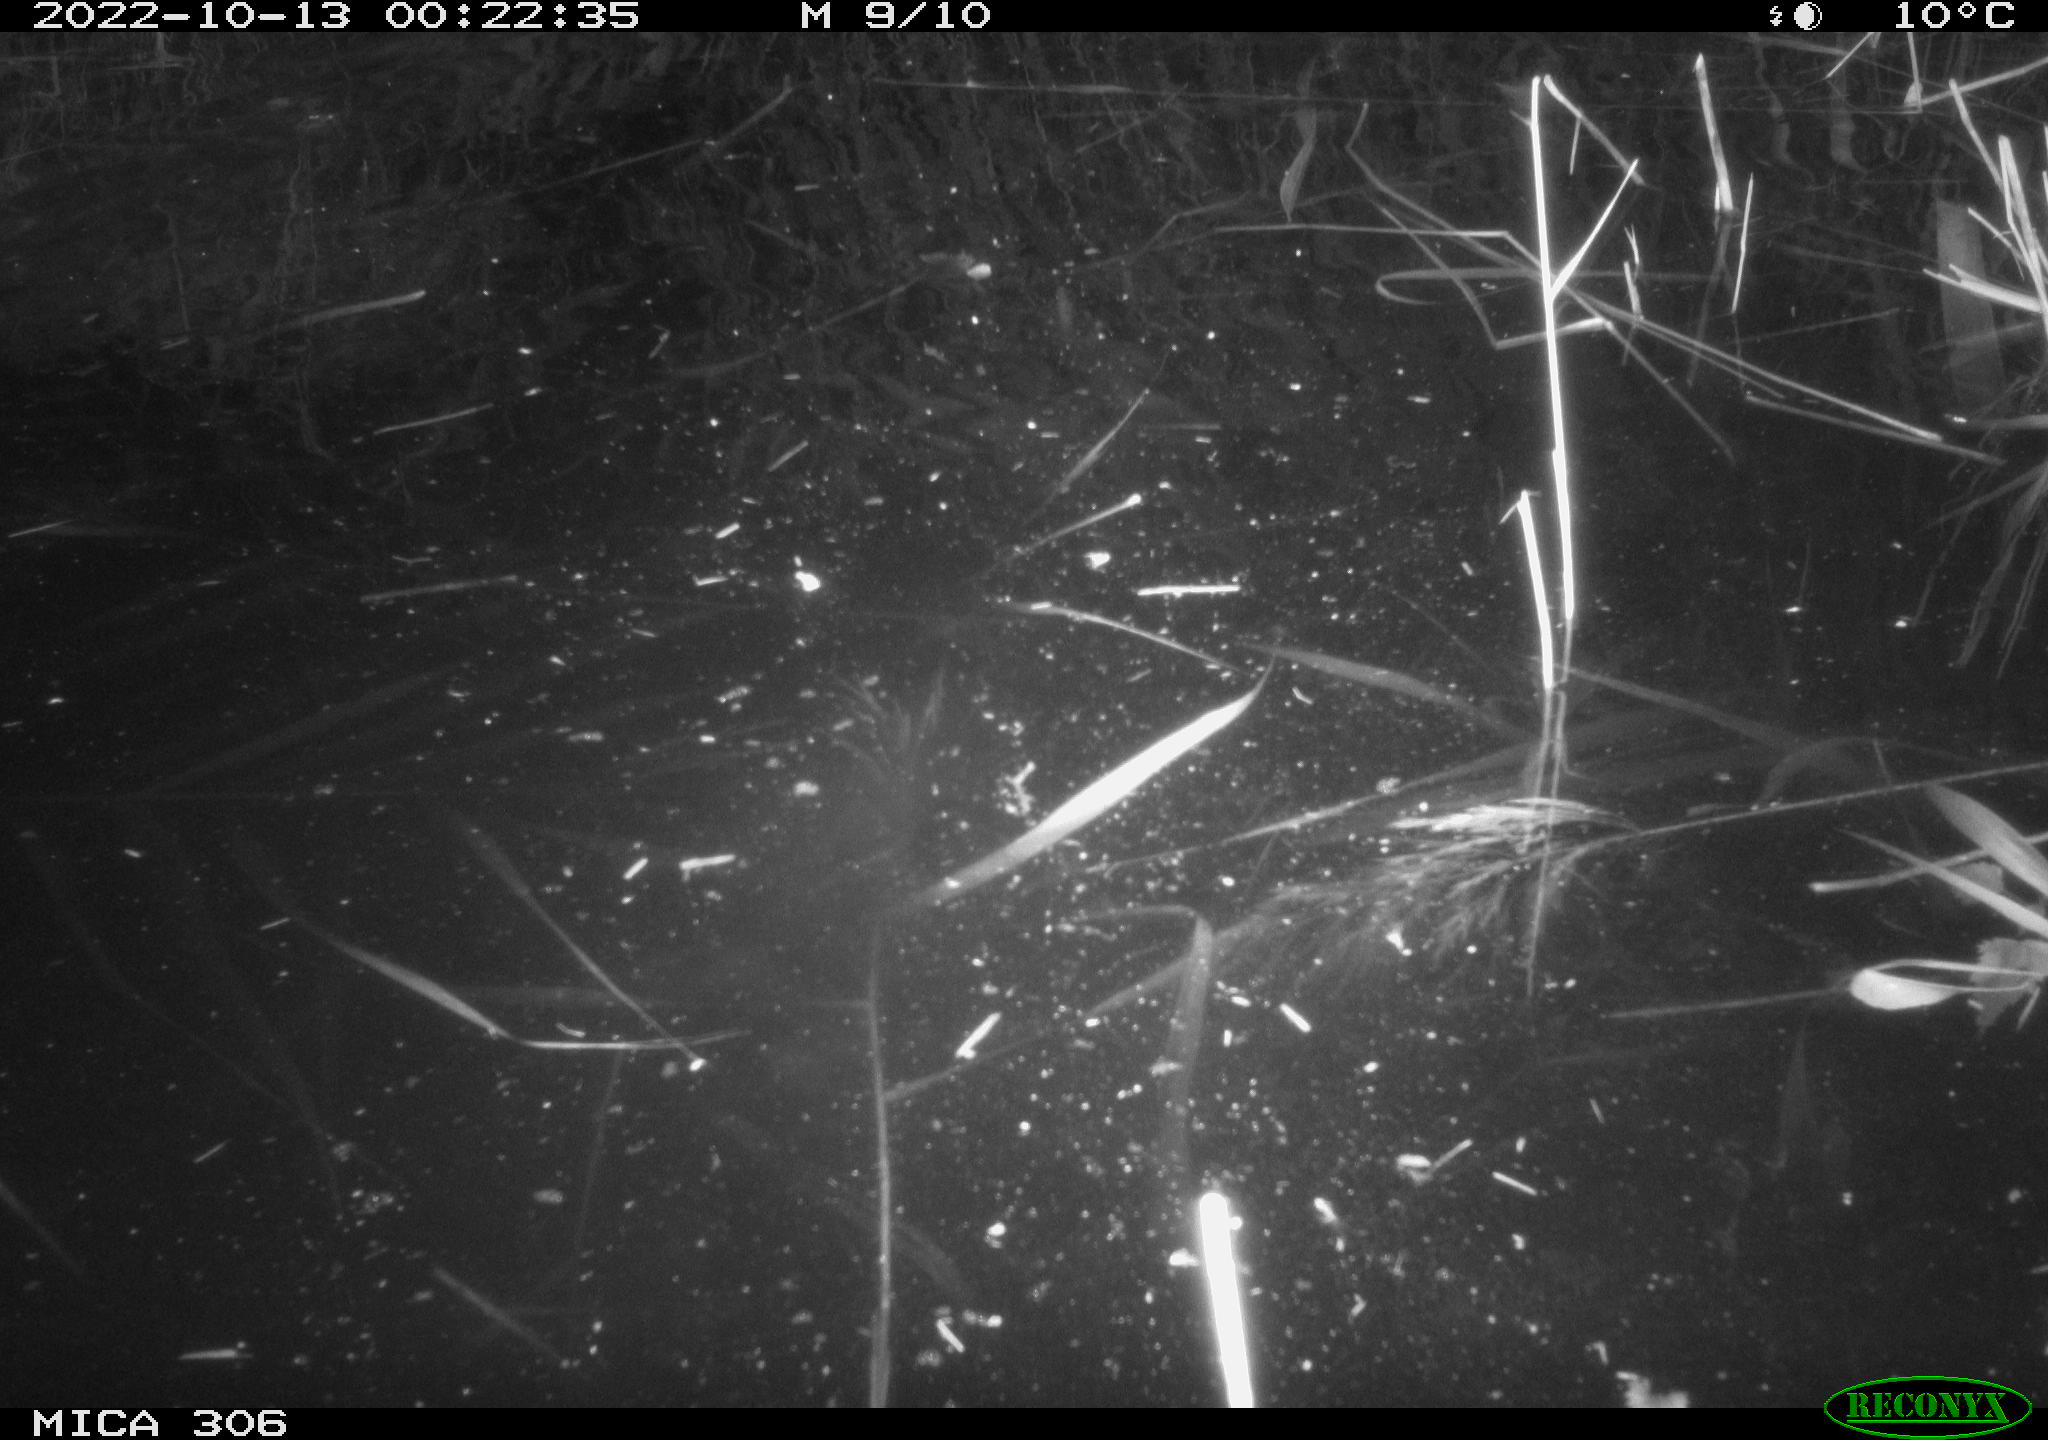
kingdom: Animalia
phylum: Chordata
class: Mammalia
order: Rodentia
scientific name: Rodentia
